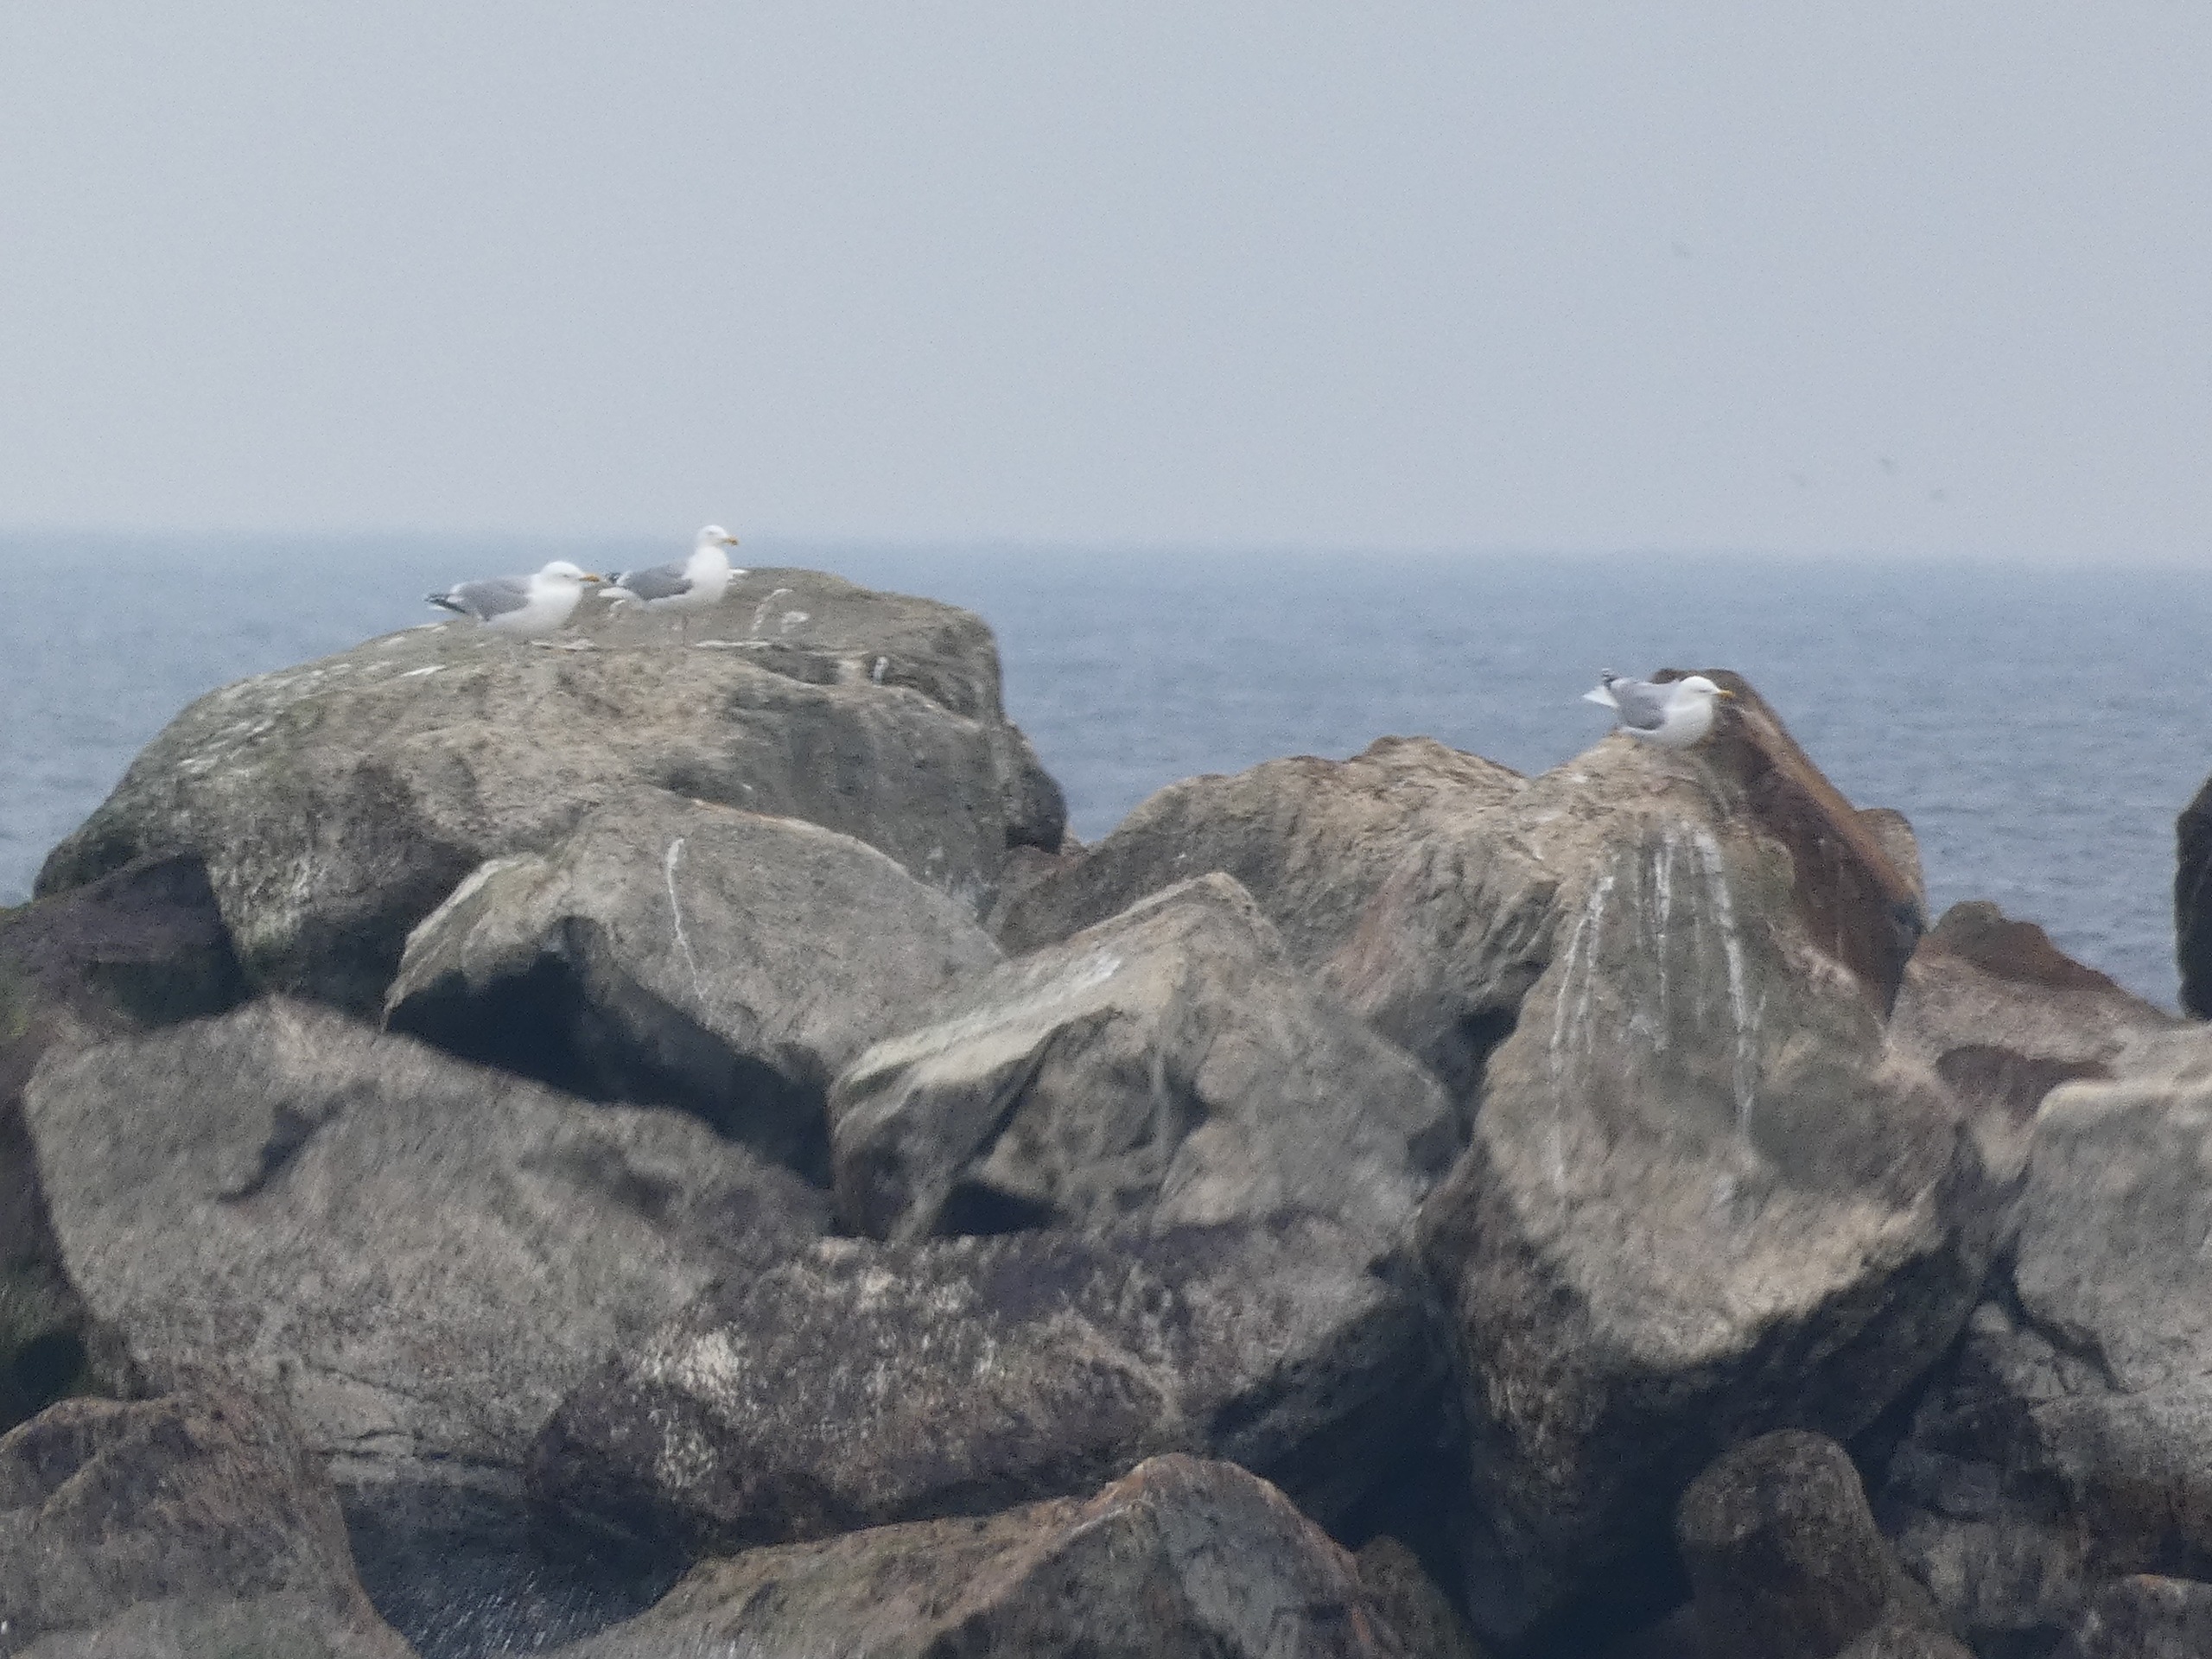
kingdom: Animalia
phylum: Chordata
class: Aves
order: Charadriiformes
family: Laridae
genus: Larus
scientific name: Larus argentatus
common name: Sølvmåge
